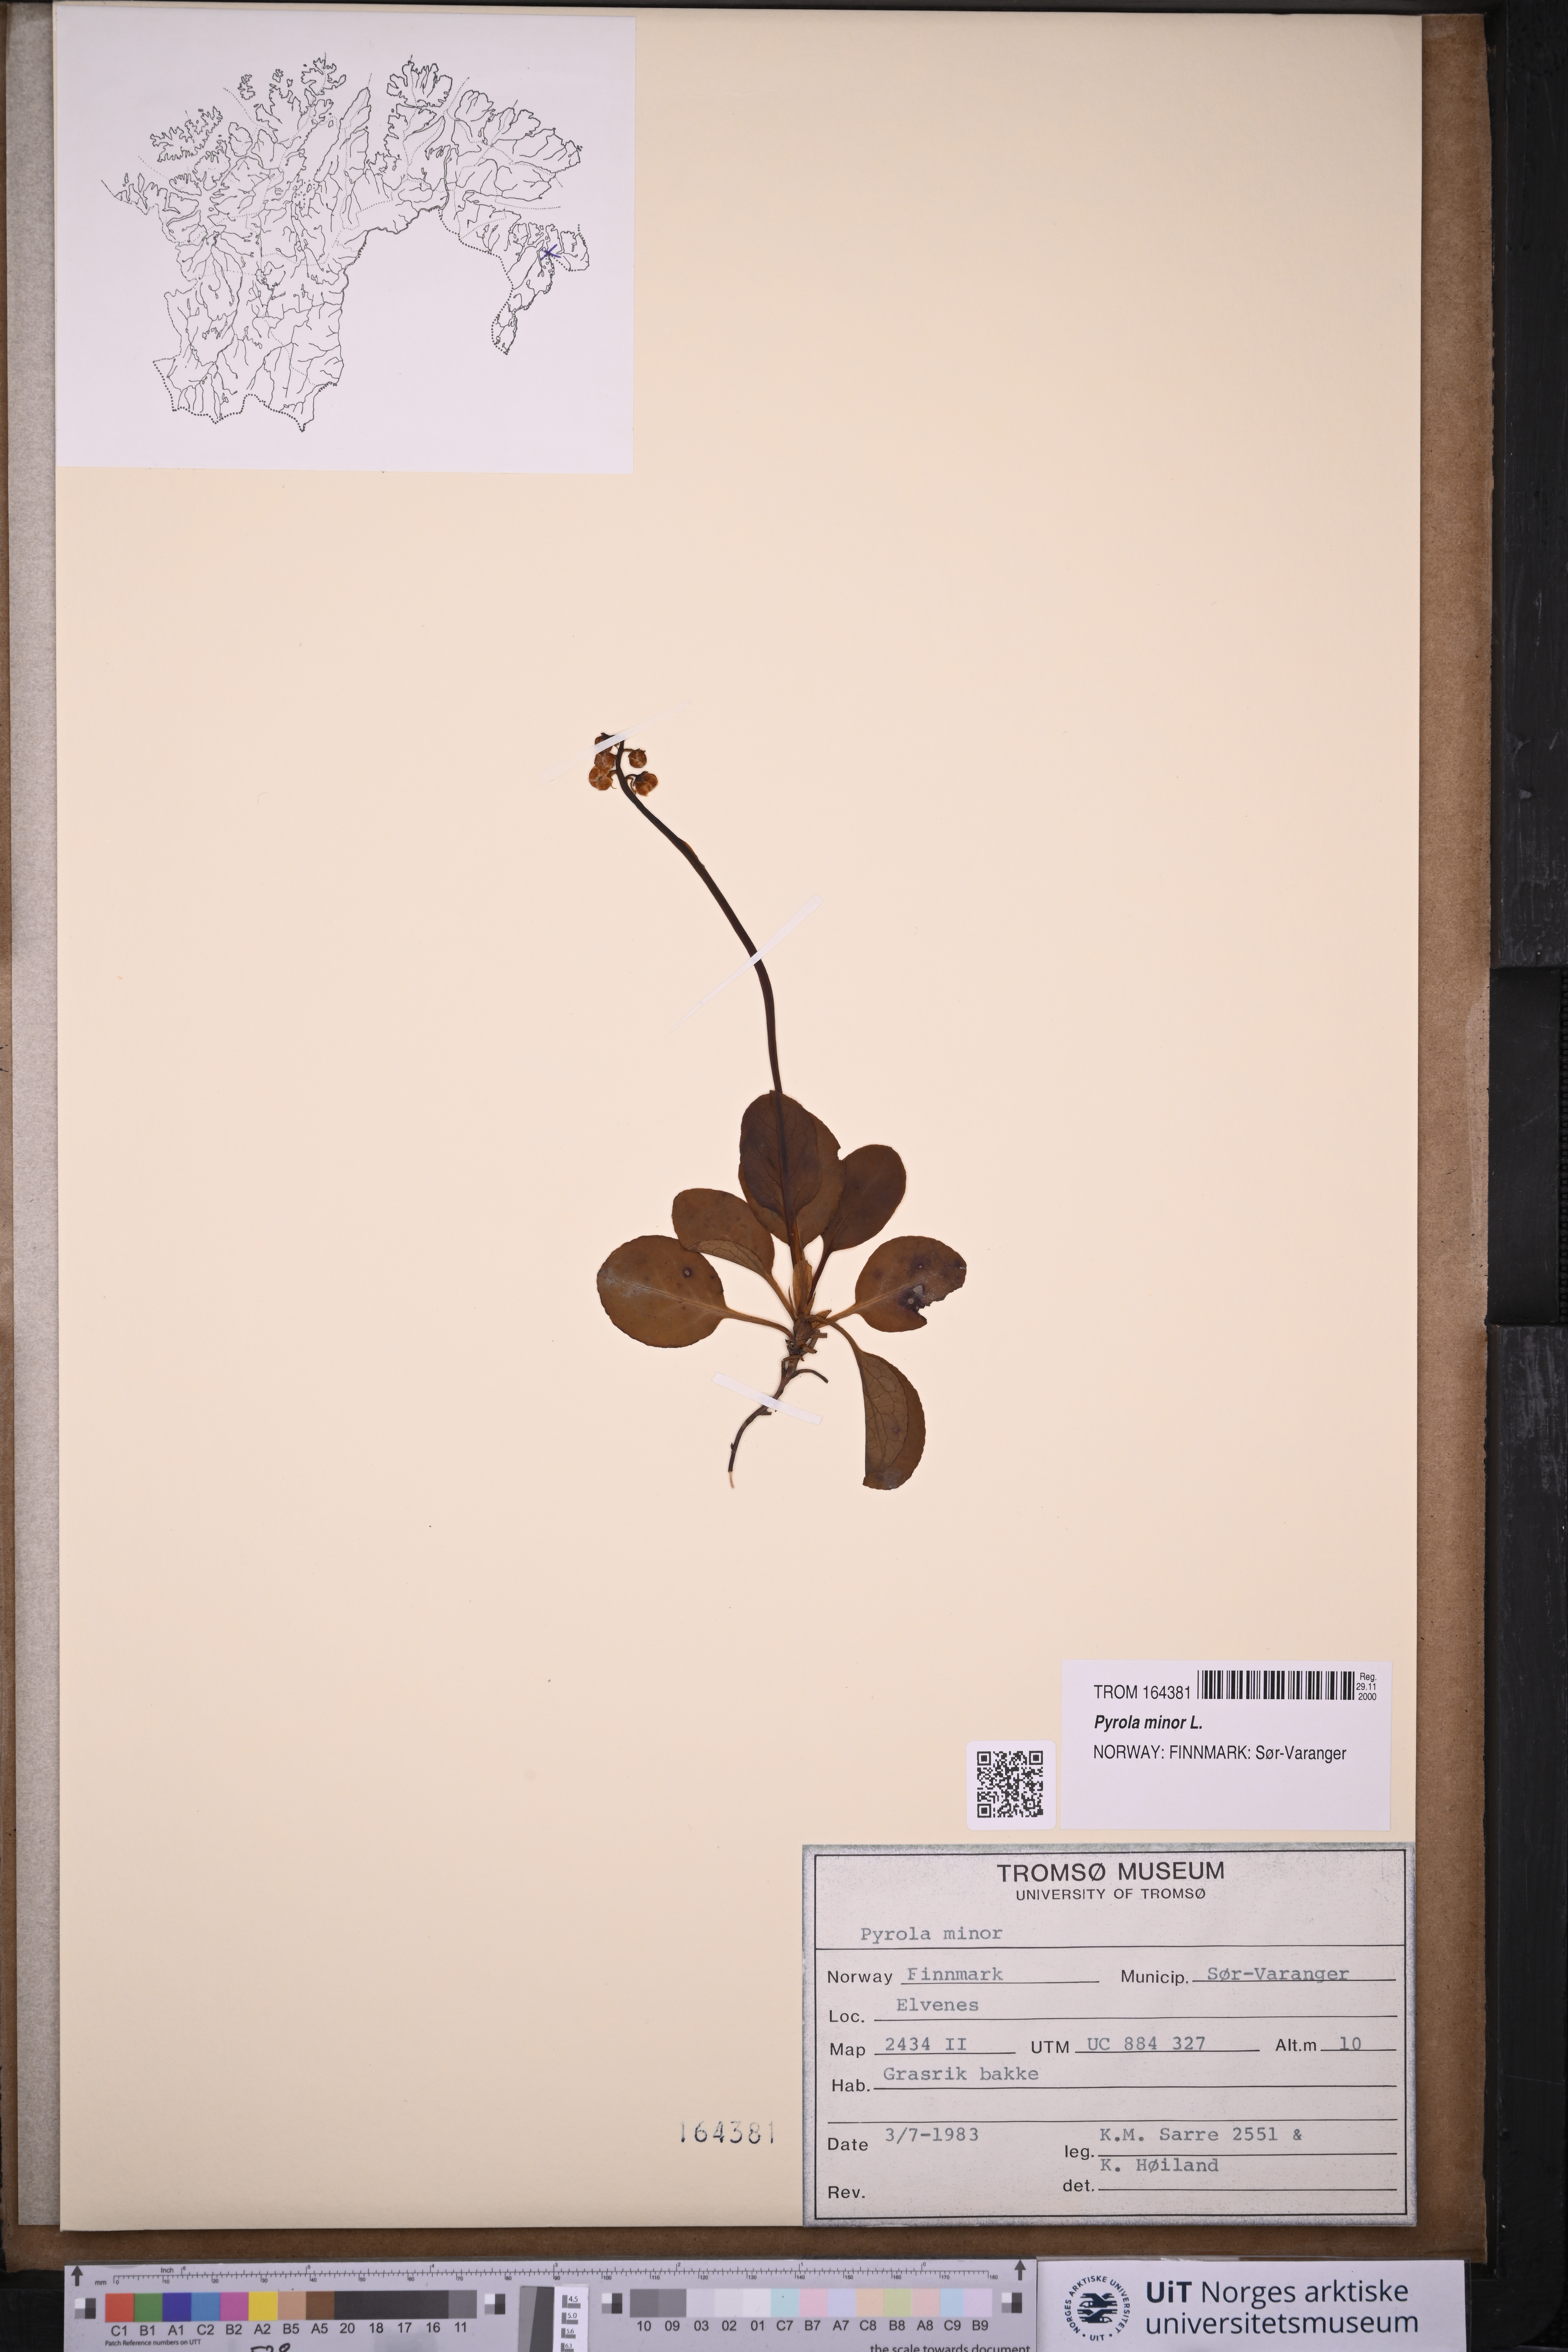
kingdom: Plantae
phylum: Tracheophyta
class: Magnoliopsida
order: Ericales
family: Ericaceae
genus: Pyrola
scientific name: Pyrola minor
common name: Common wintergreen
